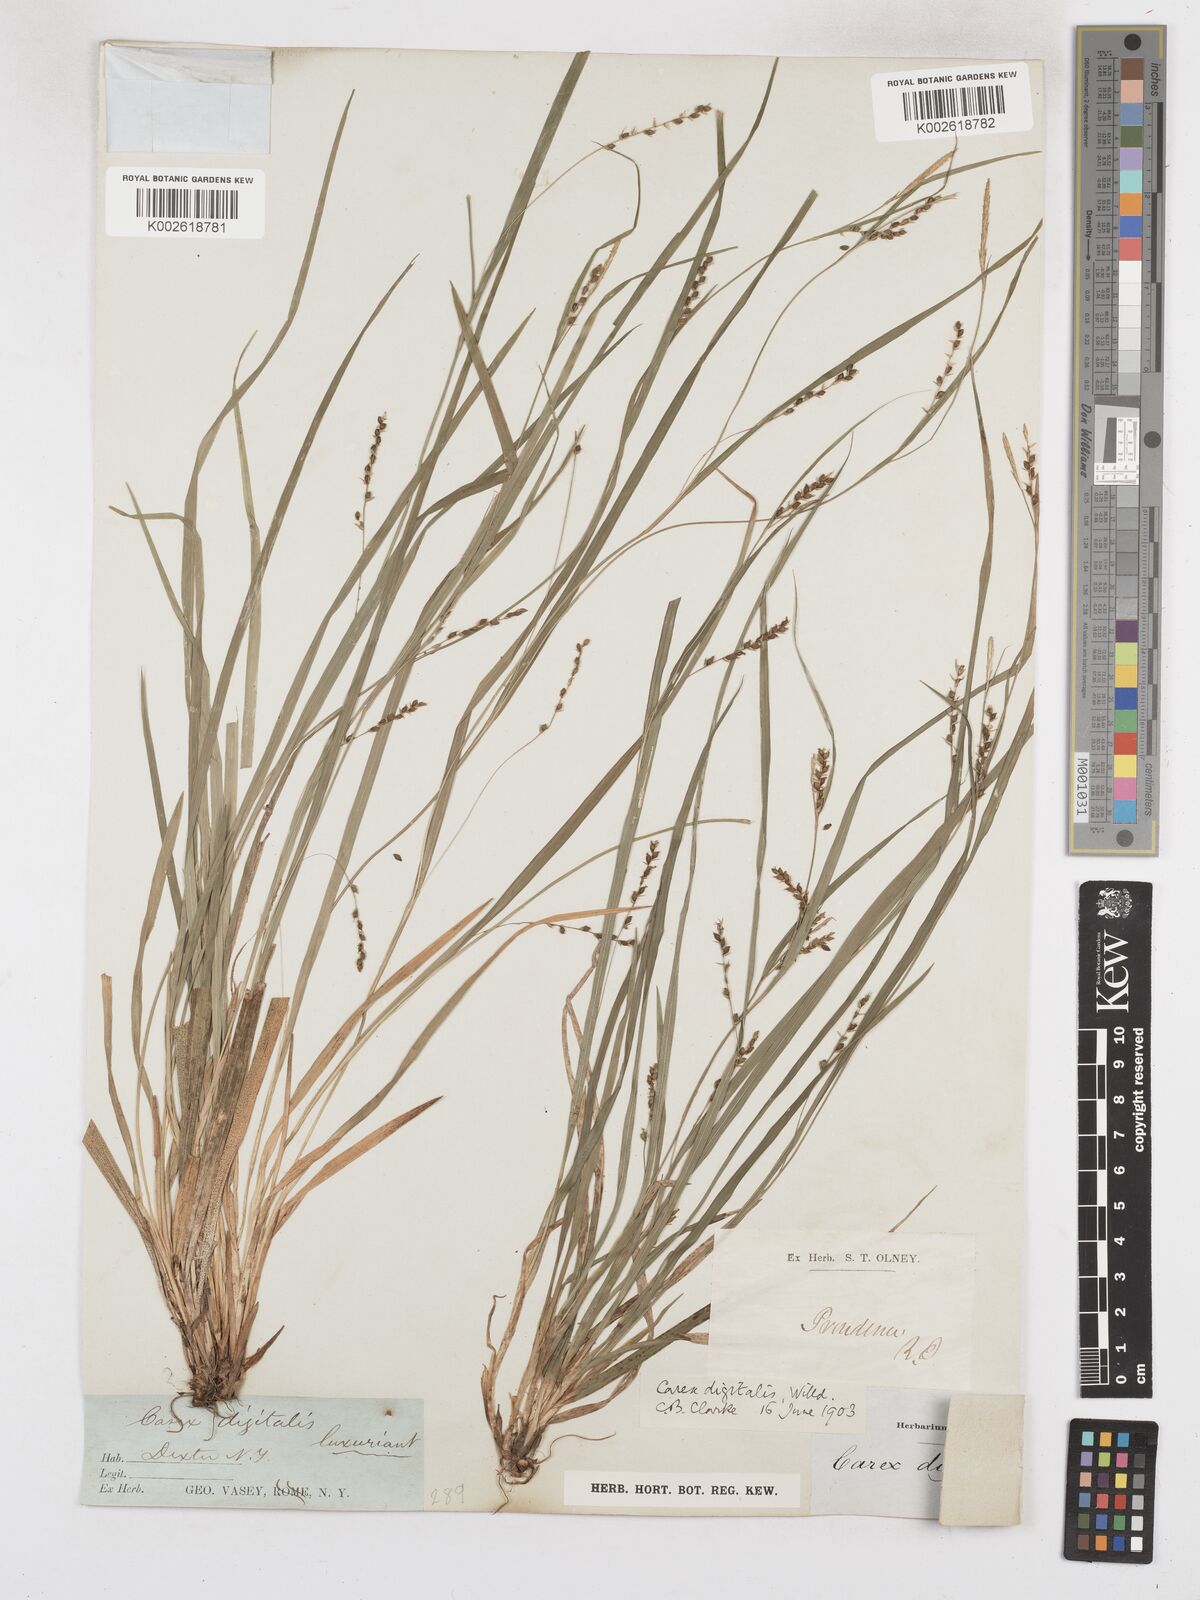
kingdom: Plantae
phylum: Tracheophyta
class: Liliopsida
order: Poales
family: Cyperaceae
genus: Carex
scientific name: Carex digitalis
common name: Slender wood sedge
